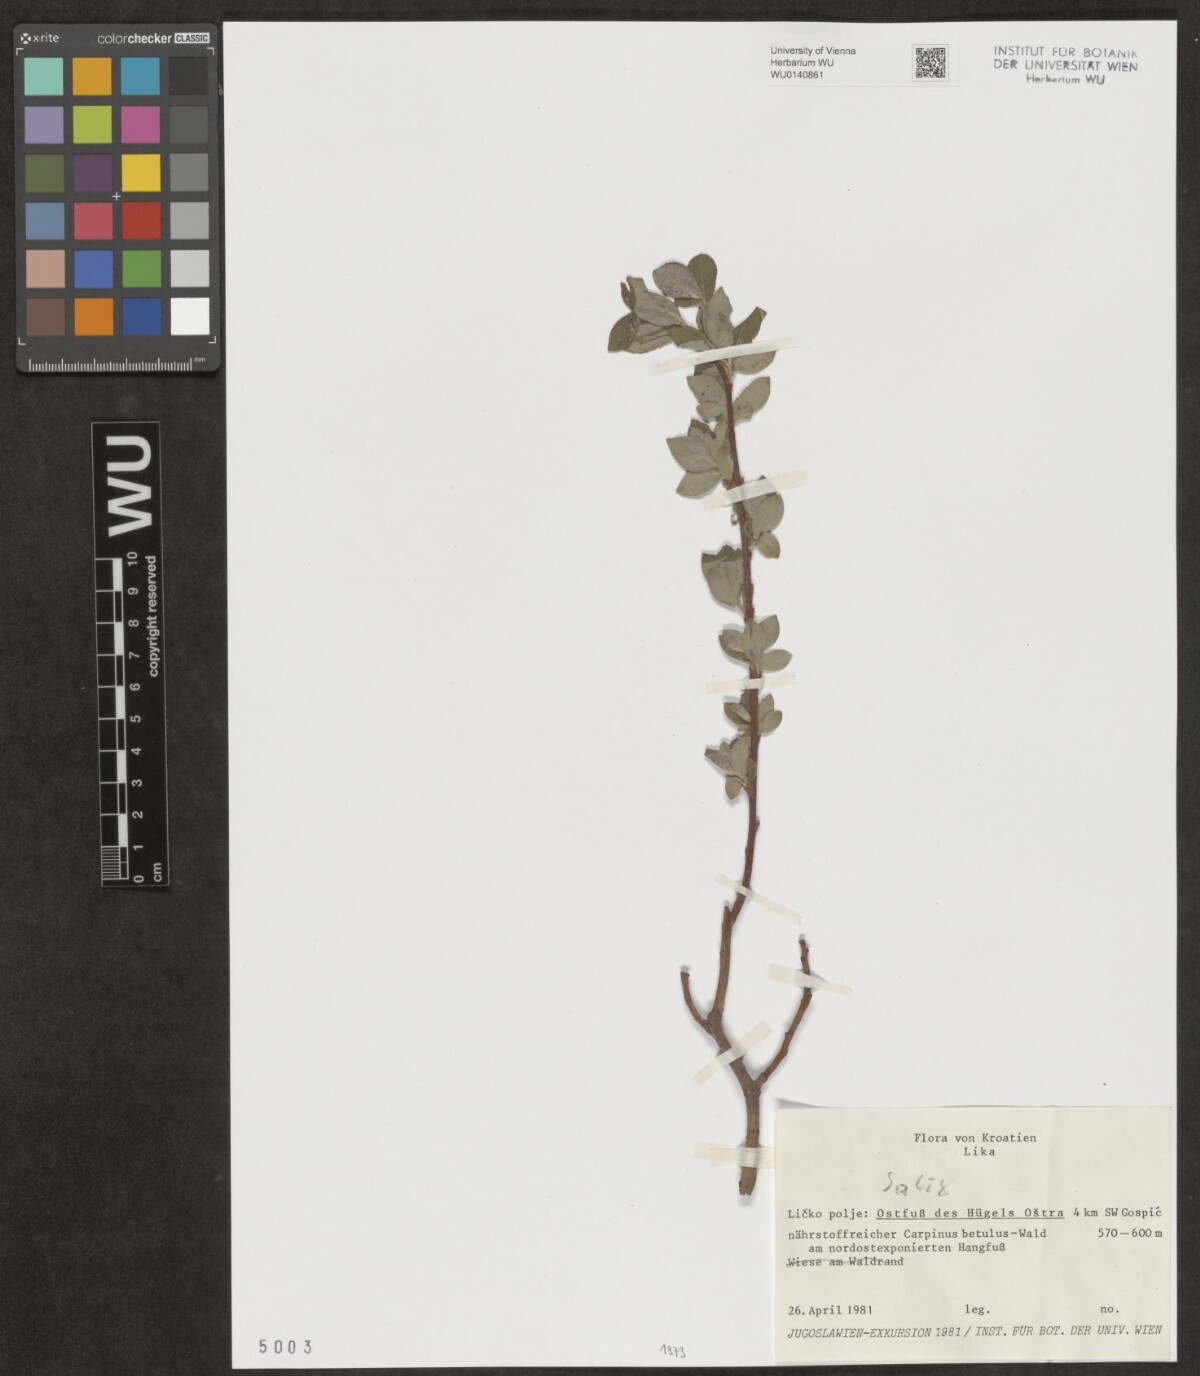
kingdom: Plantae
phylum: Tracheophyta
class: Magnoliopsida
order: Malpighiales
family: Salicaceae
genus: Salix
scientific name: Salix
